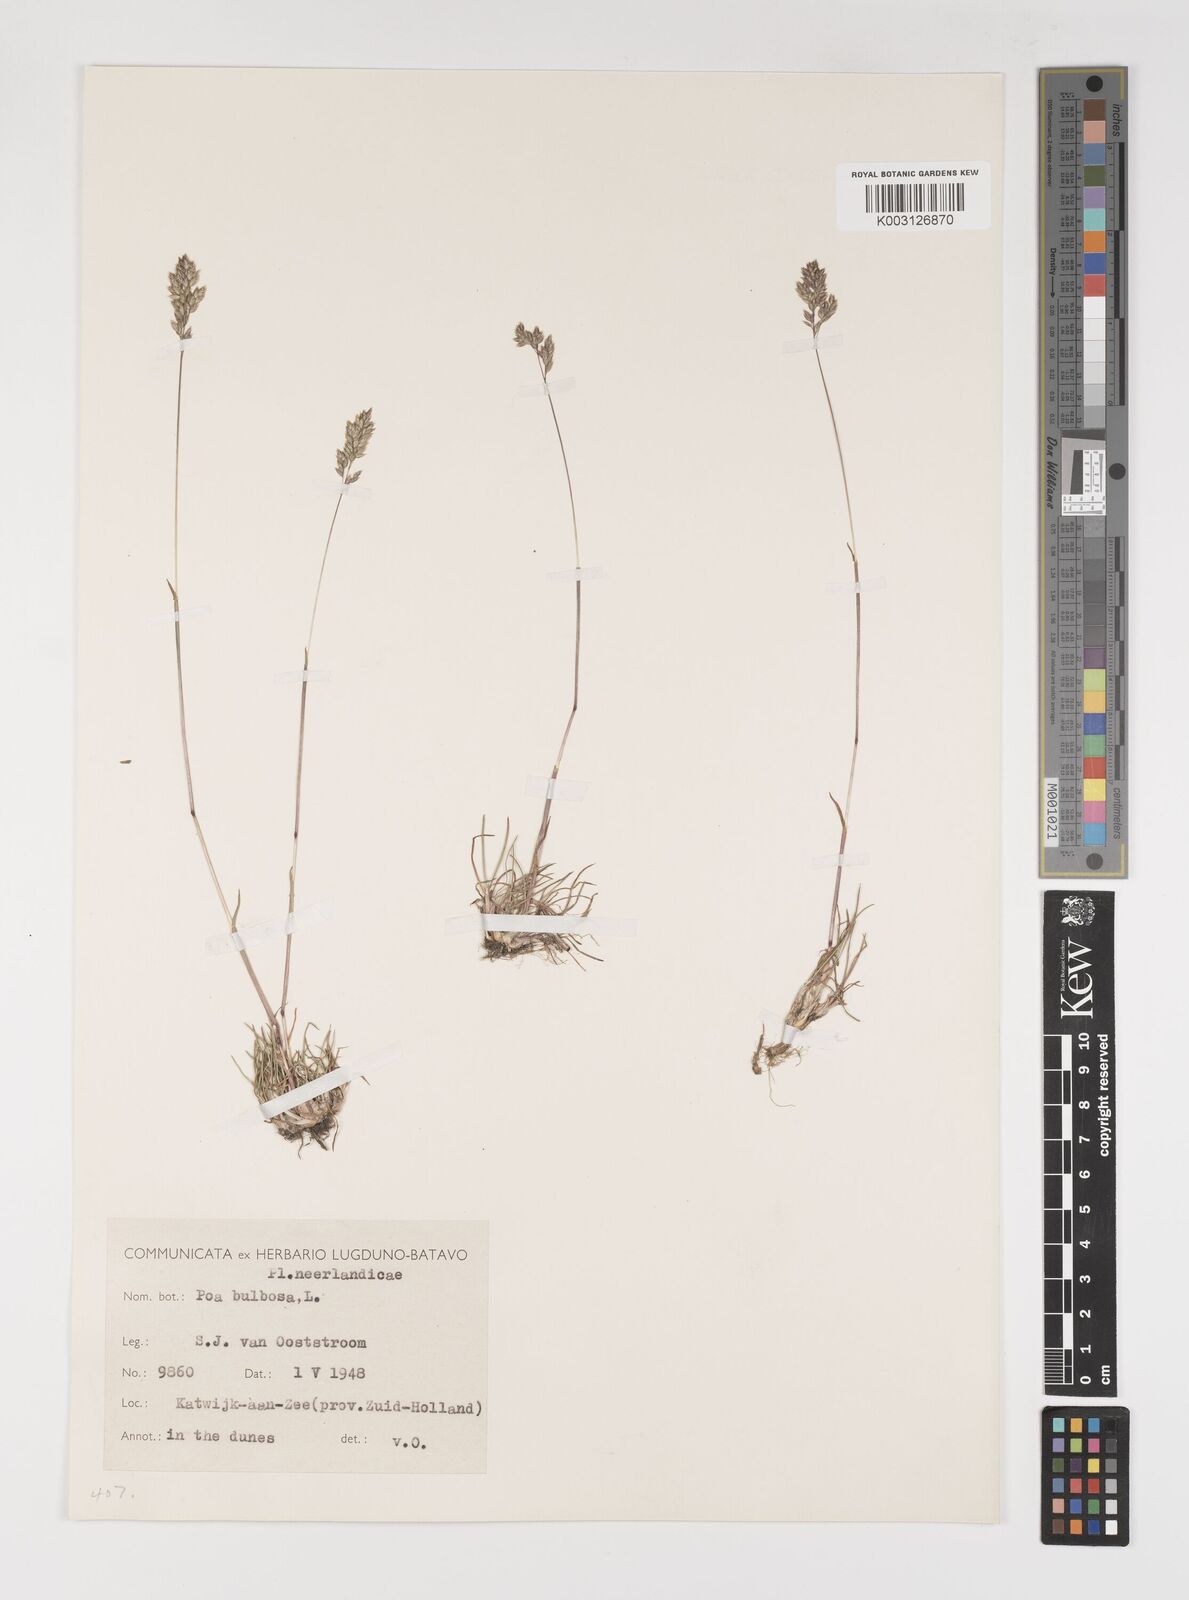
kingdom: Plantae
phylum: Tracheophyta
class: Liliopsida
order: Poales
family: Poaceae
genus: Poa
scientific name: Poa bulbosa
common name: Bulbous bluegrass
